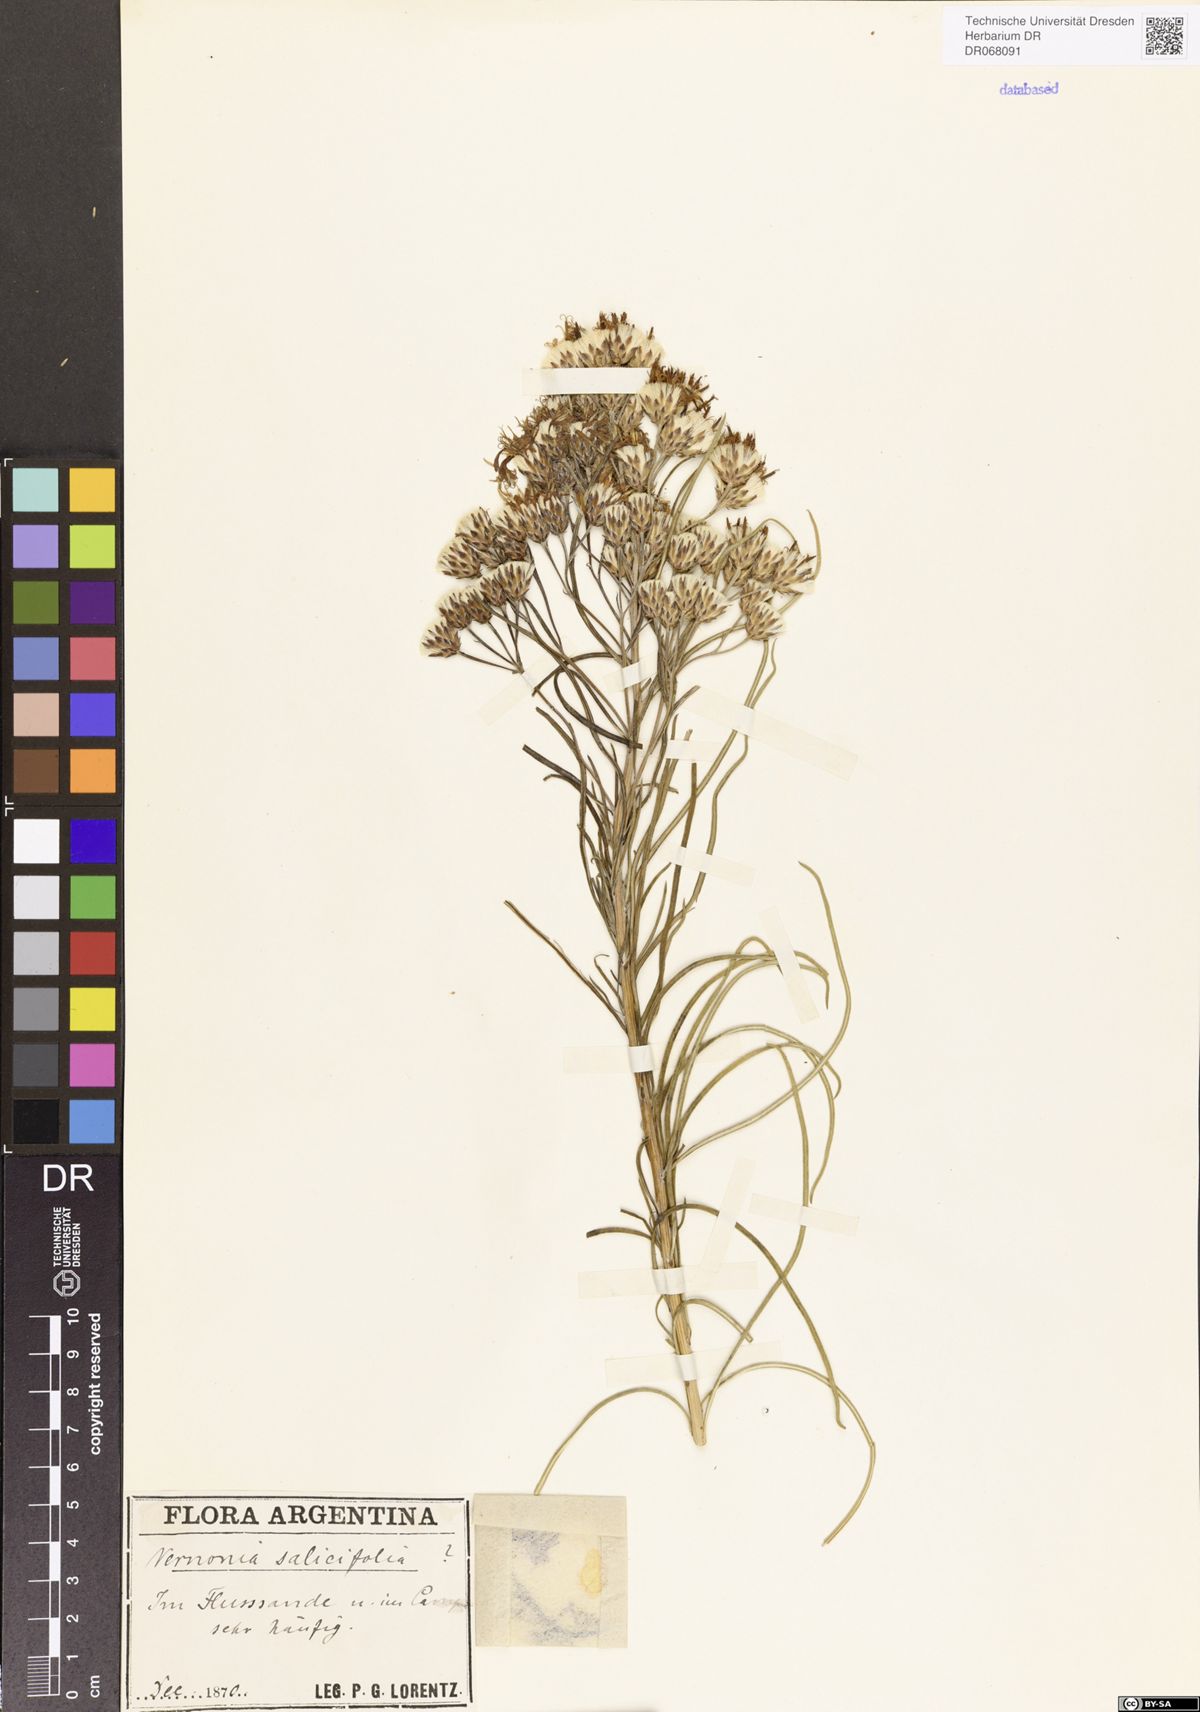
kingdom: Plantae
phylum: Tracheophyta
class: Magnoliopsida
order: Asterales
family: Asteraceae
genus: Lessingianthus
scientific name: Lessingianthus rubricaulis
